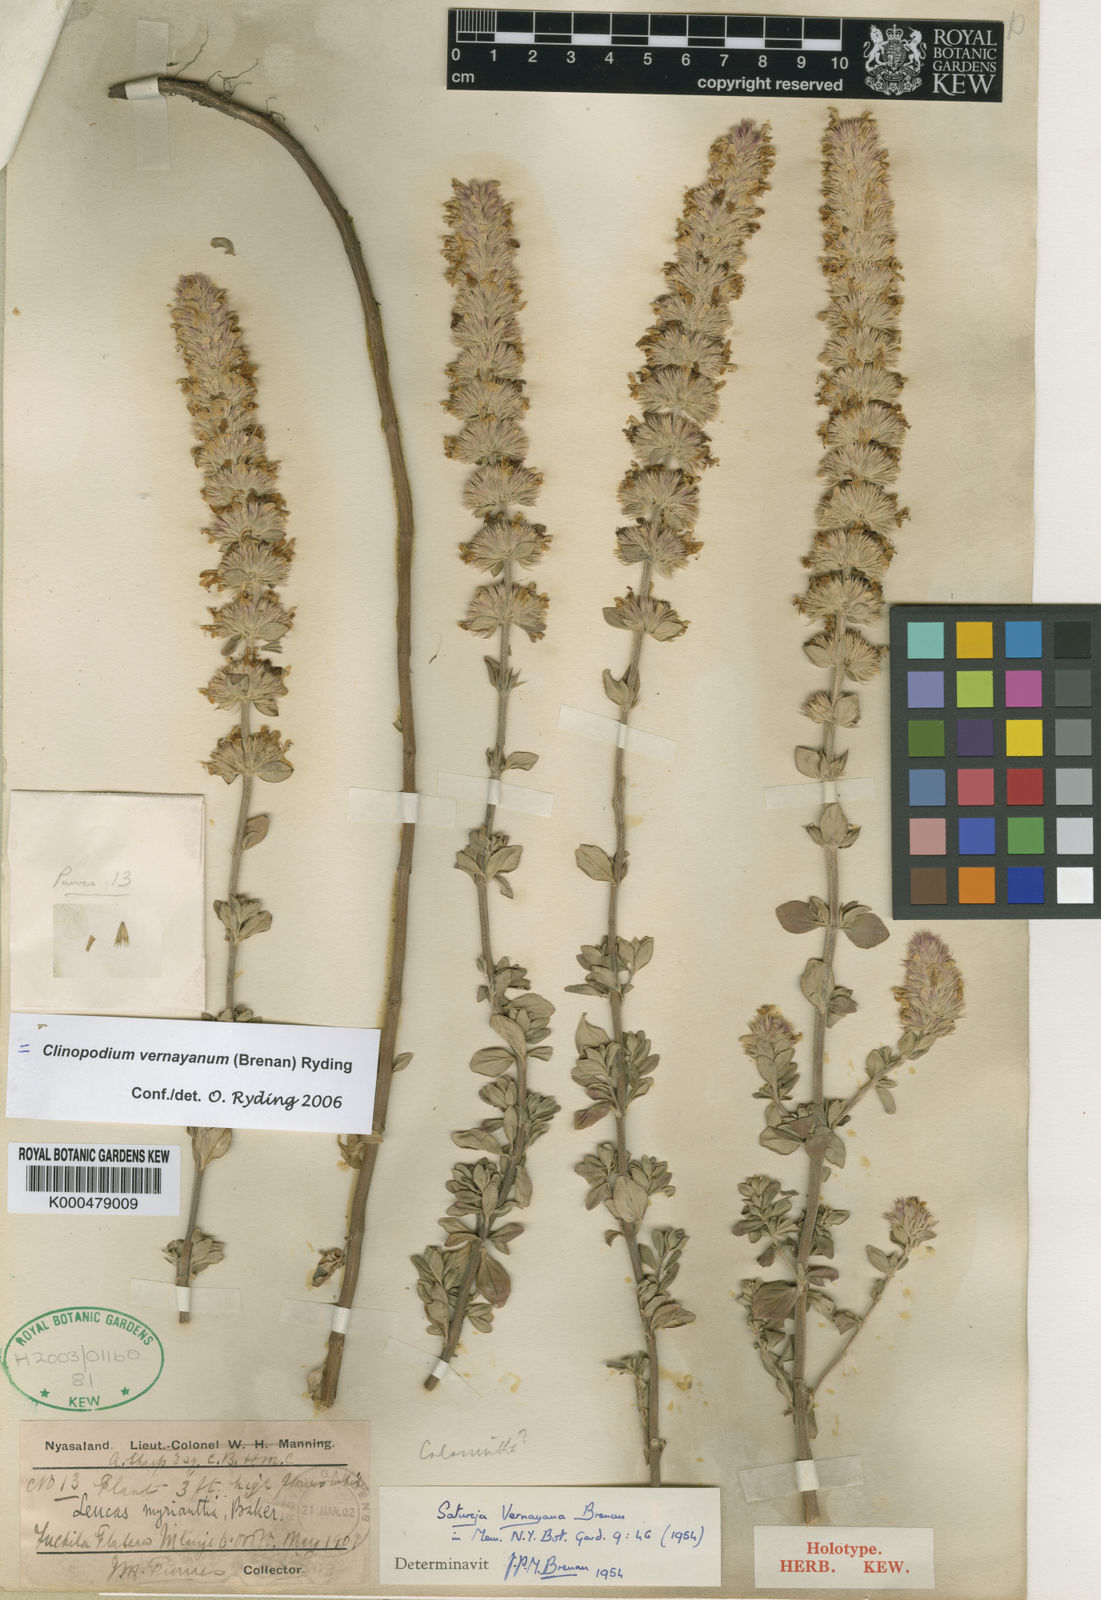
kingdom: Plantae
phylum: Tracheophyta
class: Magnoliopsida
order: Lamiales
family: Lamiaceae
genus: Clinopodium
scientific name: Clinopodium vernayanum
